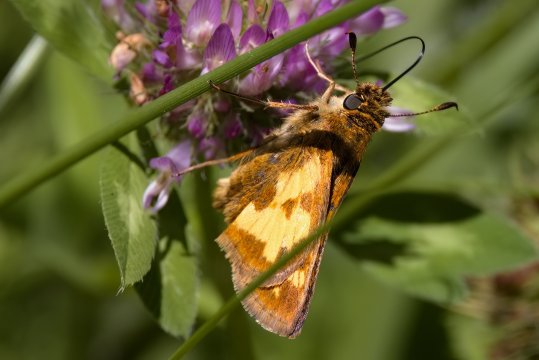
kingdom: Animalia
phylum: Arthropoda
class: Insecta
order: Lepidoptera
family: Hesperiidae
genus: Polites
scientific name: Polites coras
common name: Peck's Skipper
